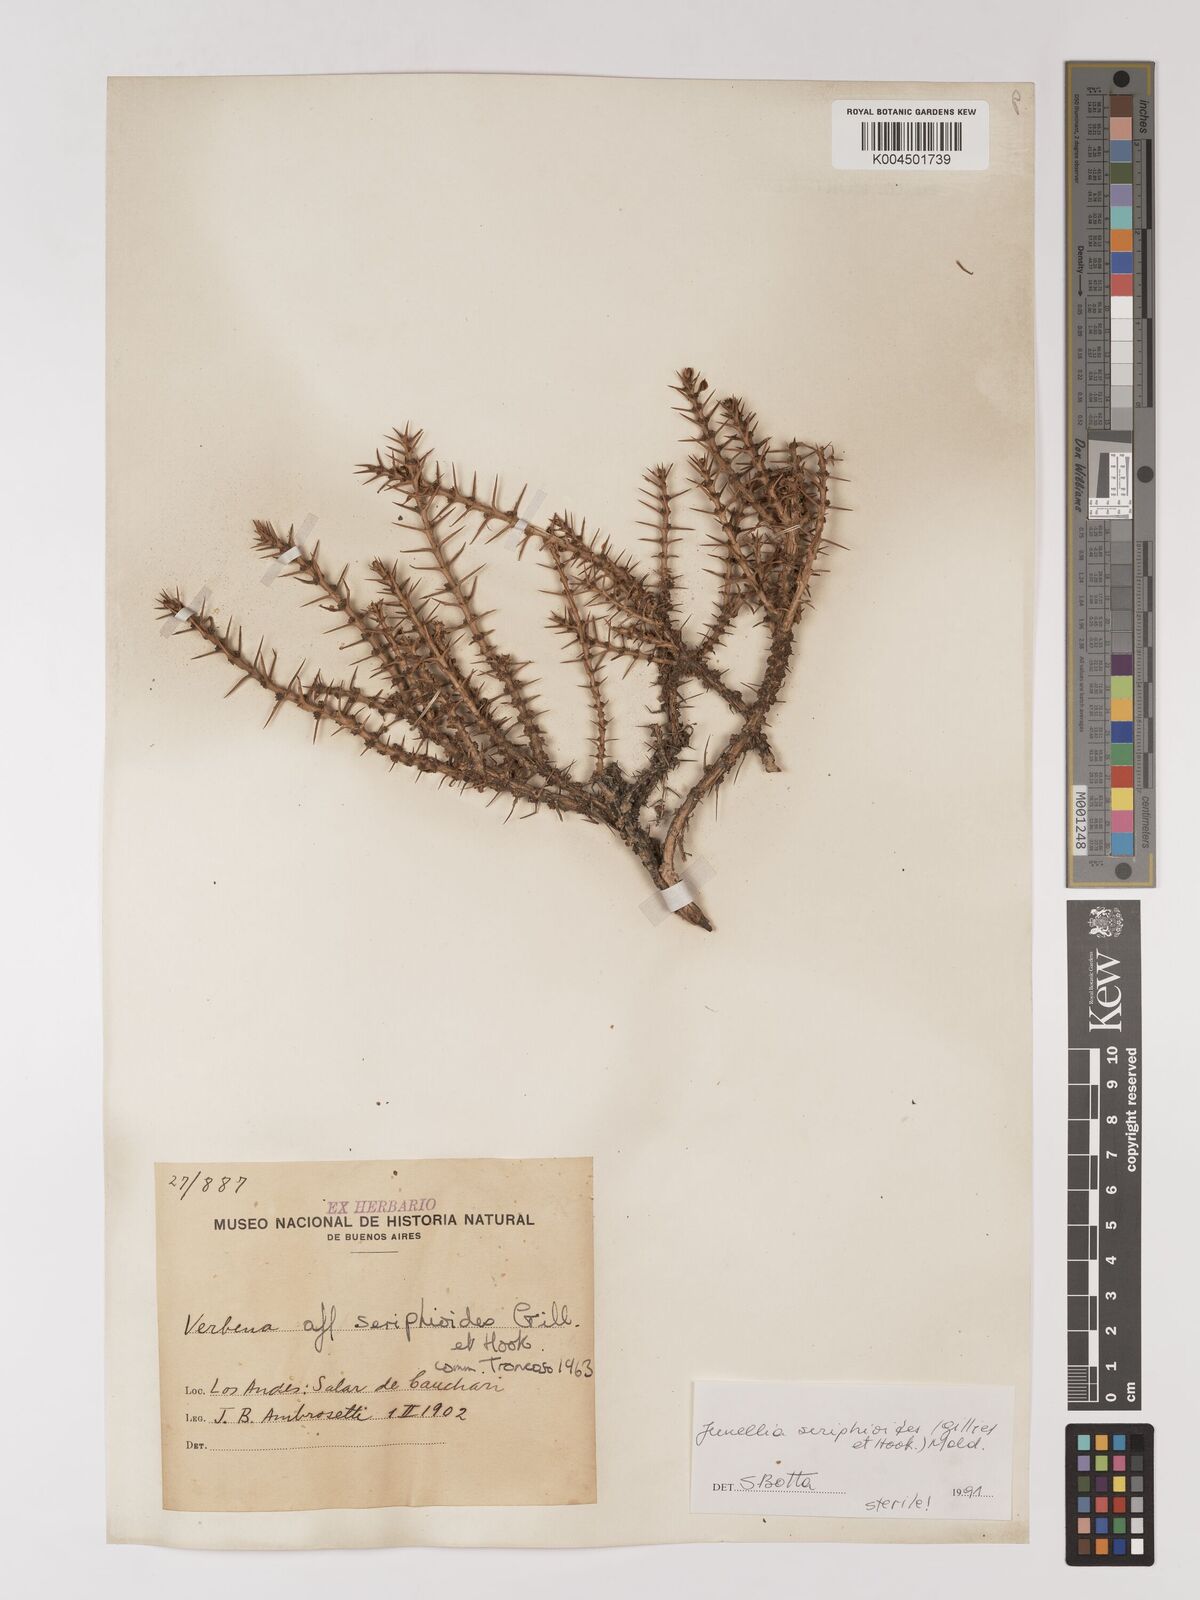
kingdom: Plantae
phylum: Tracheophyta
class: Magnoliopsida
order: Lamiales
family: Verbenaceae
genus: Junellia
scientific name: Junellia seriphioides
